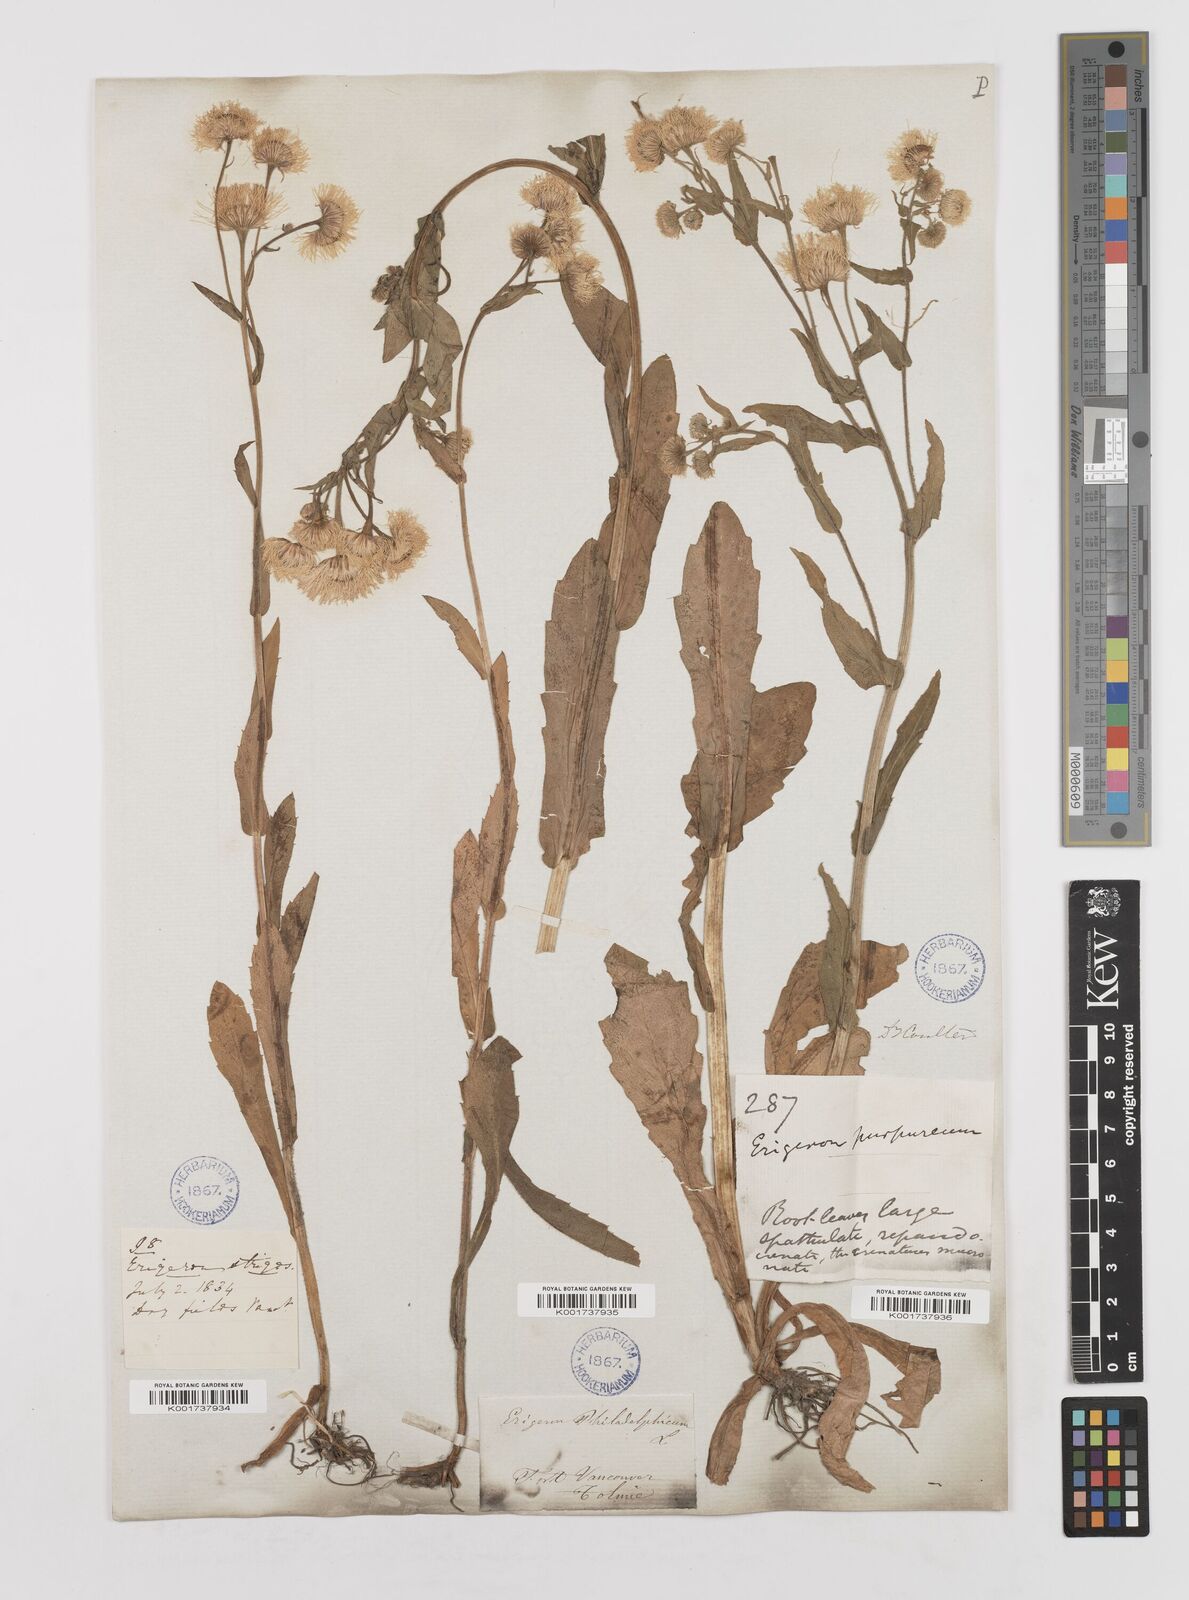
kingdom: Plantae
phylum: Tracheophyta
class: Magnoliopsida
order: Asterales
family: Asteraceae
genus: Erigeron
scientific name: Erigeron philadelphicus
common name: Robin's-plantain
